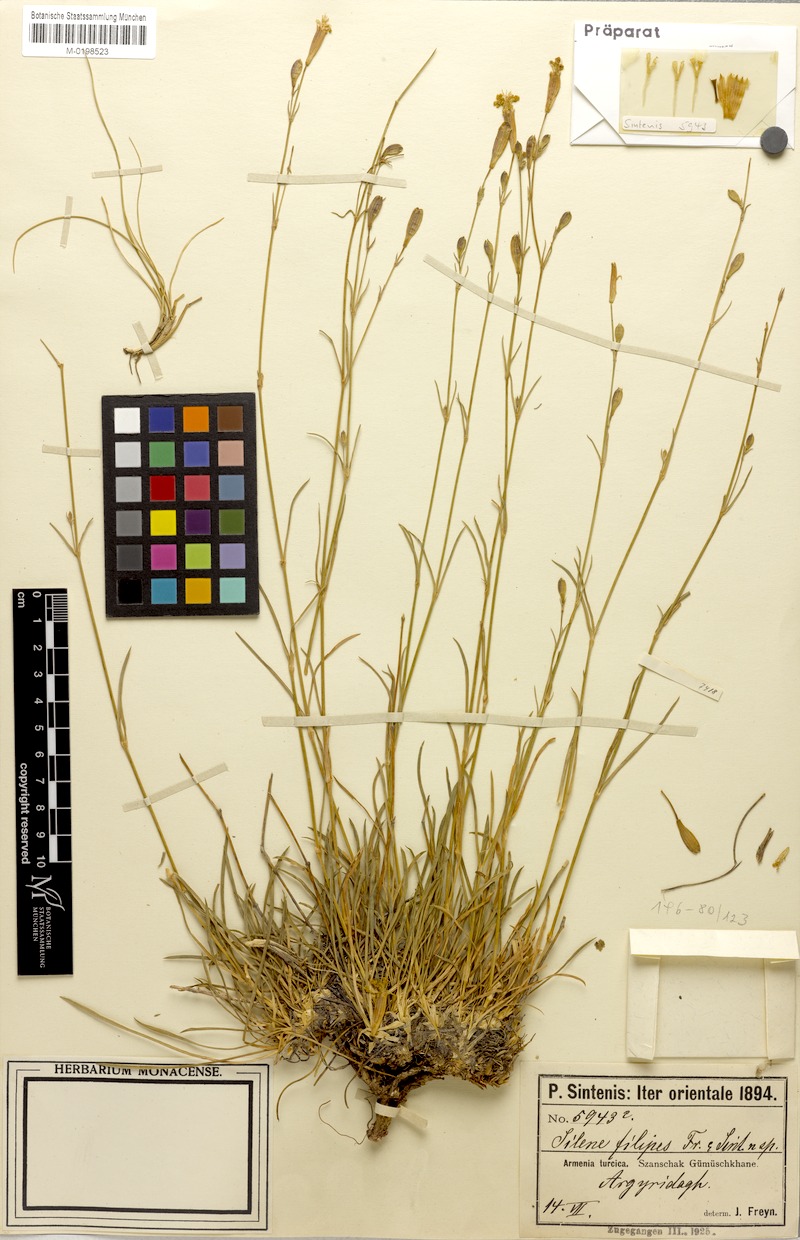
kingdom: Plantae
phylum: Tracheophyta
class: Magnoliopsida
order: Caryophyllales
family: Caryophyllaceae
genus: Silene
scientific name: Silene armena
